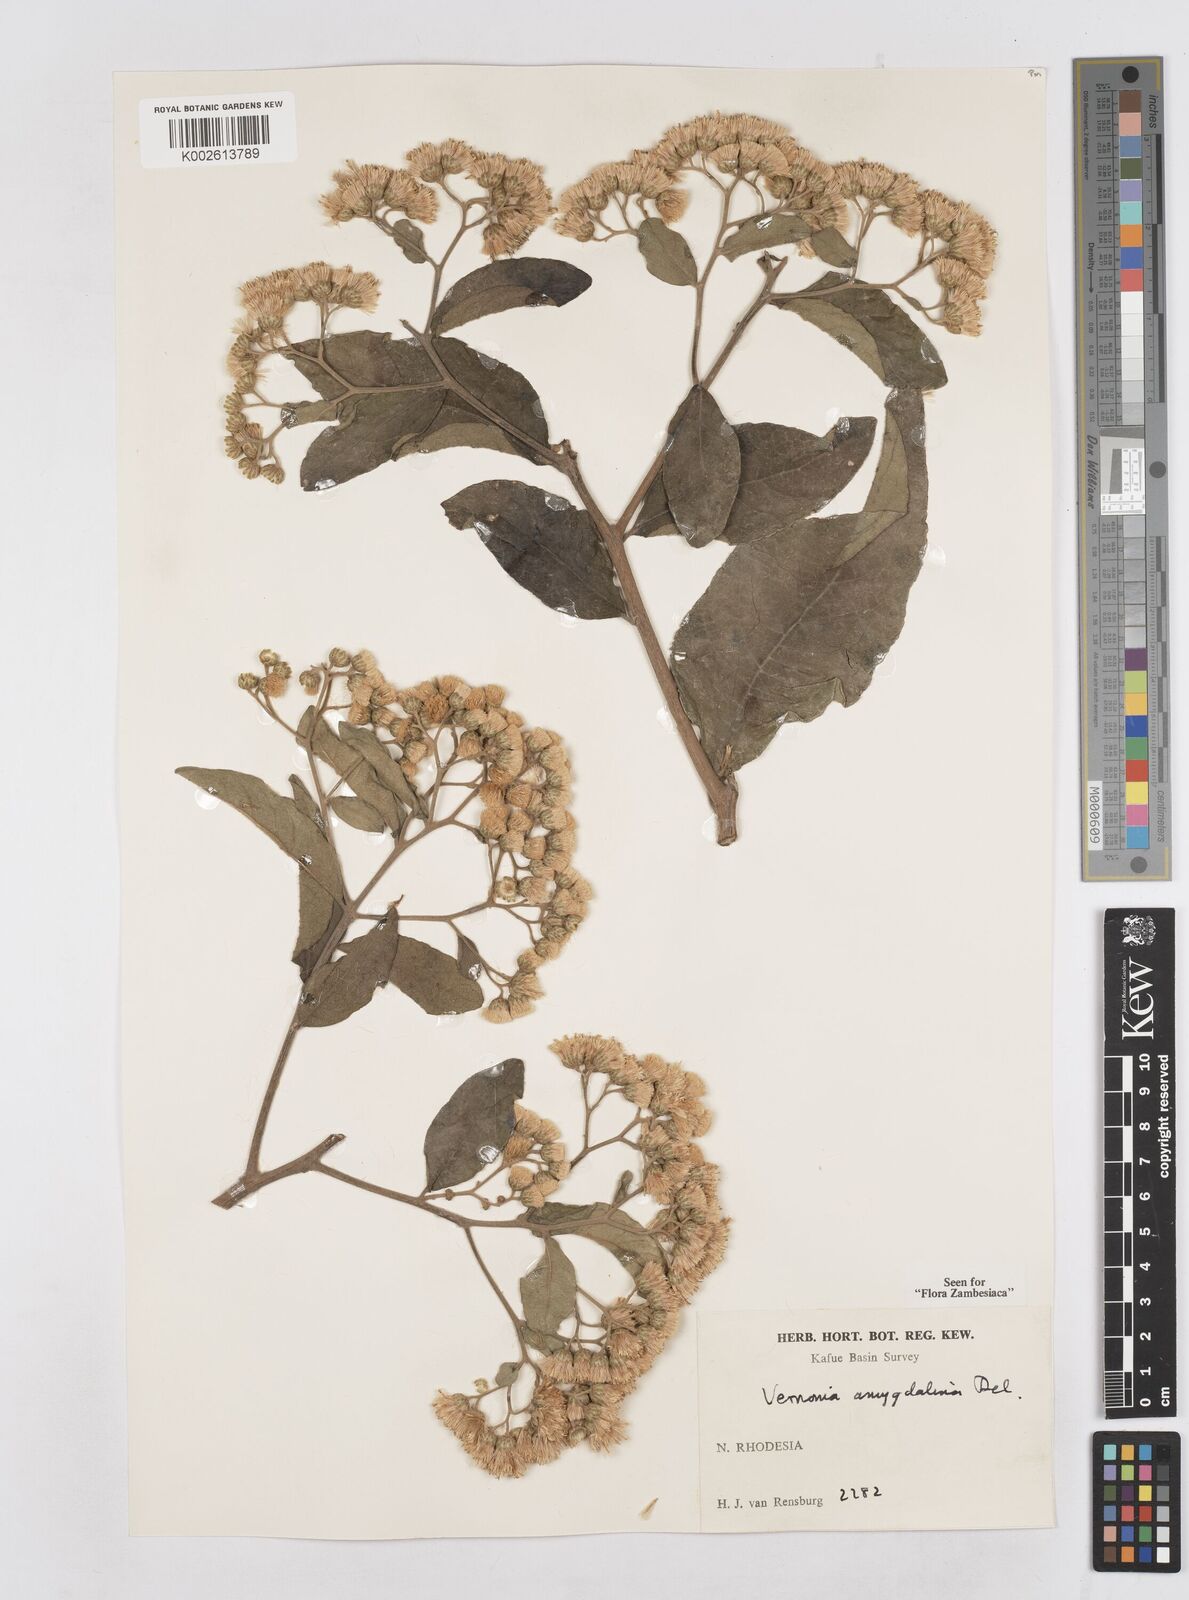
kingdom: Plantae
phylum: Tracheophyta
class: Magnoliopsida
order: Asterales
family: Asteraceae
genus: Gymnanthemum
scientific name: Gymnanthemum amygdalinum
